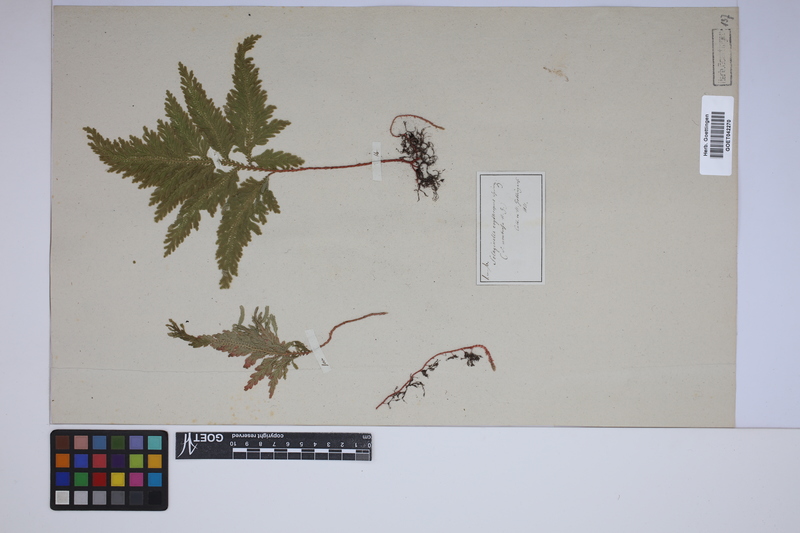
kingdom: Plantae
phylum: Tracheophyta
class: Lycopodiopsida
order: Selaginellales
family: Selaginellaceae
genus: Selaginella
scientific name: Selaginella erythropus
